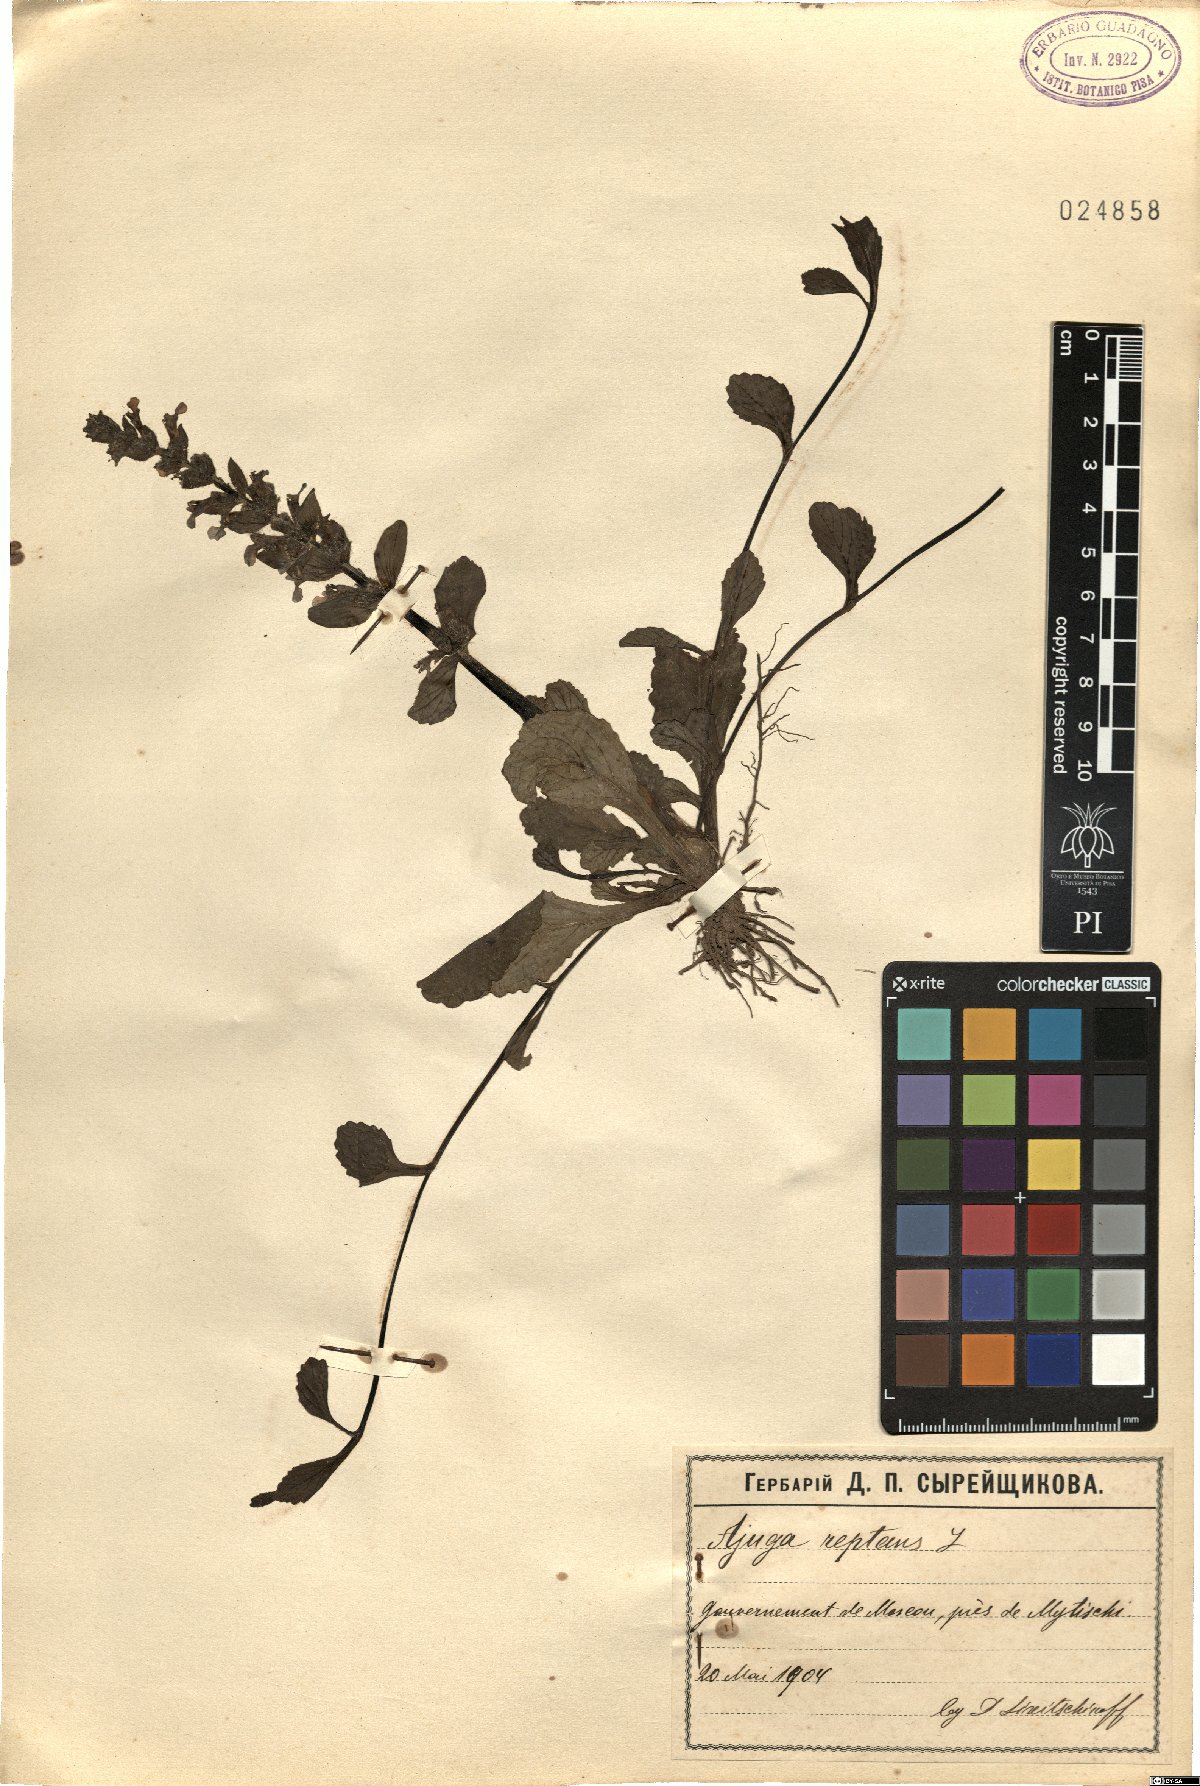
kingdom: Plantae
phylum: Tracheophyta
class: Magnoliopsida
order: Lamiales
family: Lamiaceae
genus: Ajuga
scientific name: Ajuga reptans
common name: Bugle
